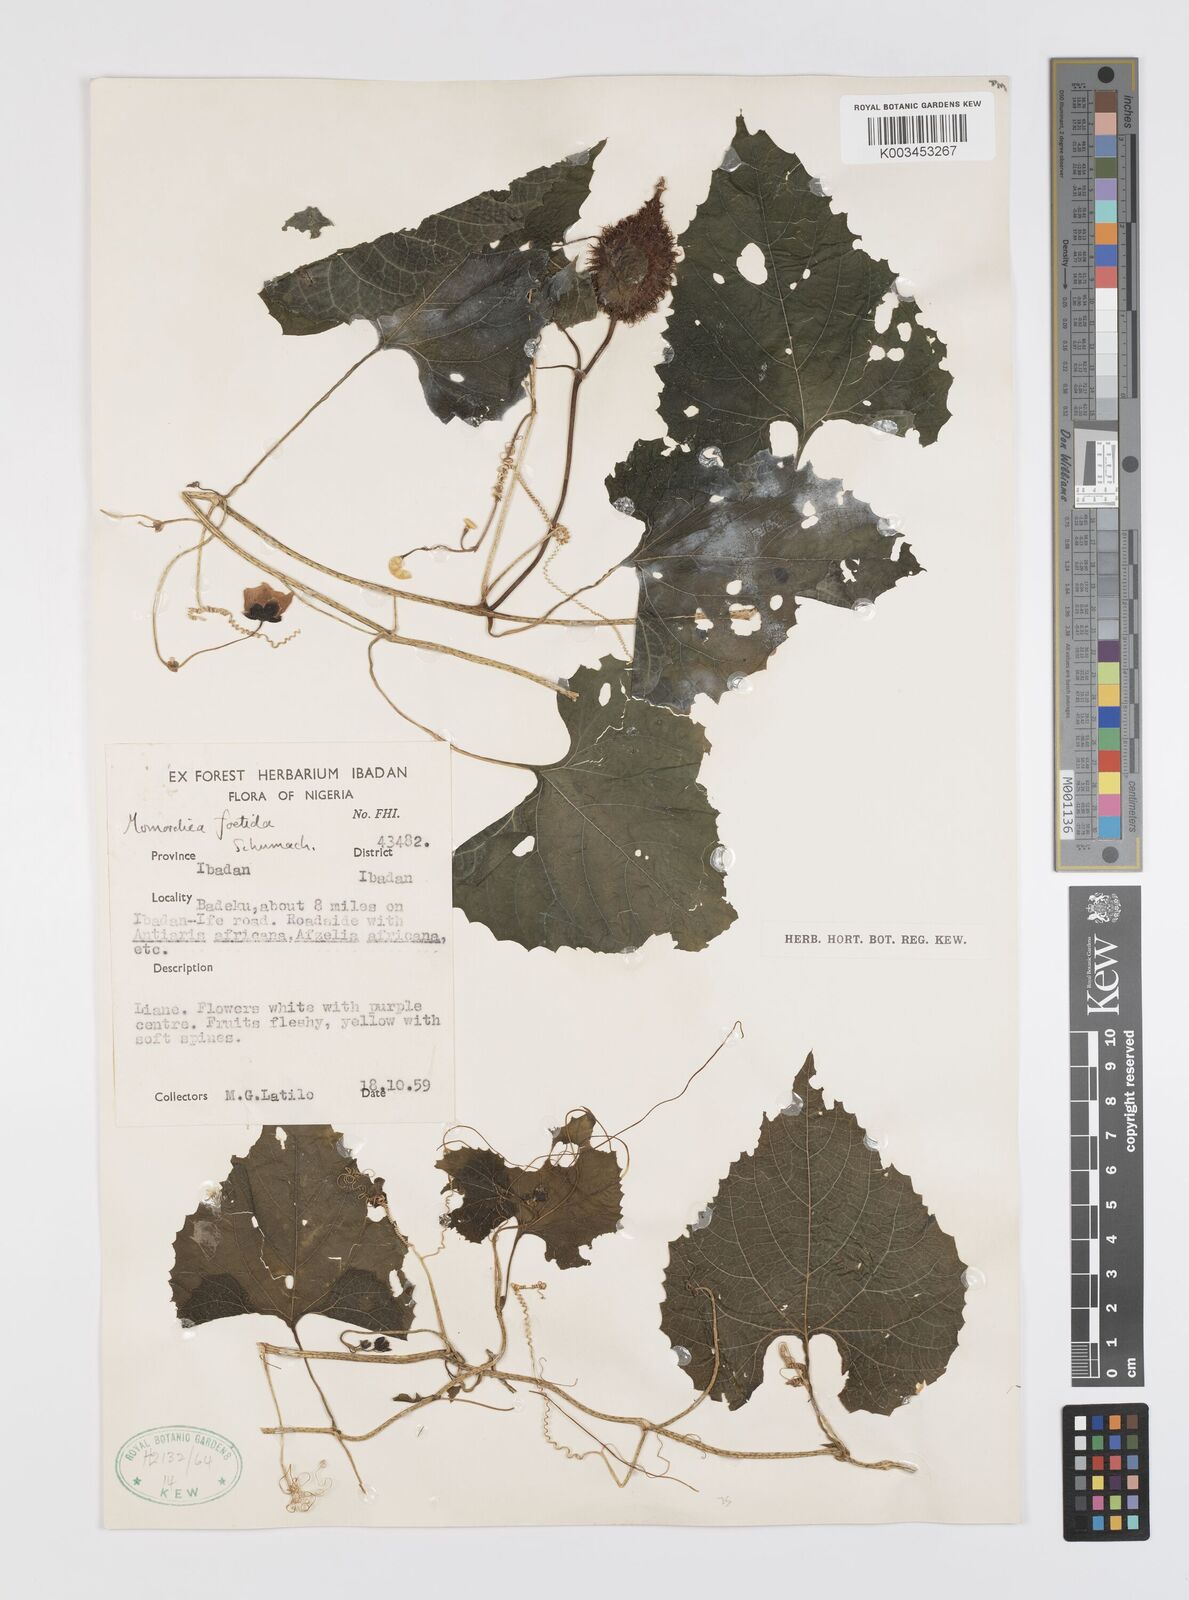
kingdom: Plantae
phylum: Tracheophyta
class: Magnoliopsida
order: Cucurbitales
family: Cucurbitaceae
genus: Momordica
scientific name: Momordica foetida
